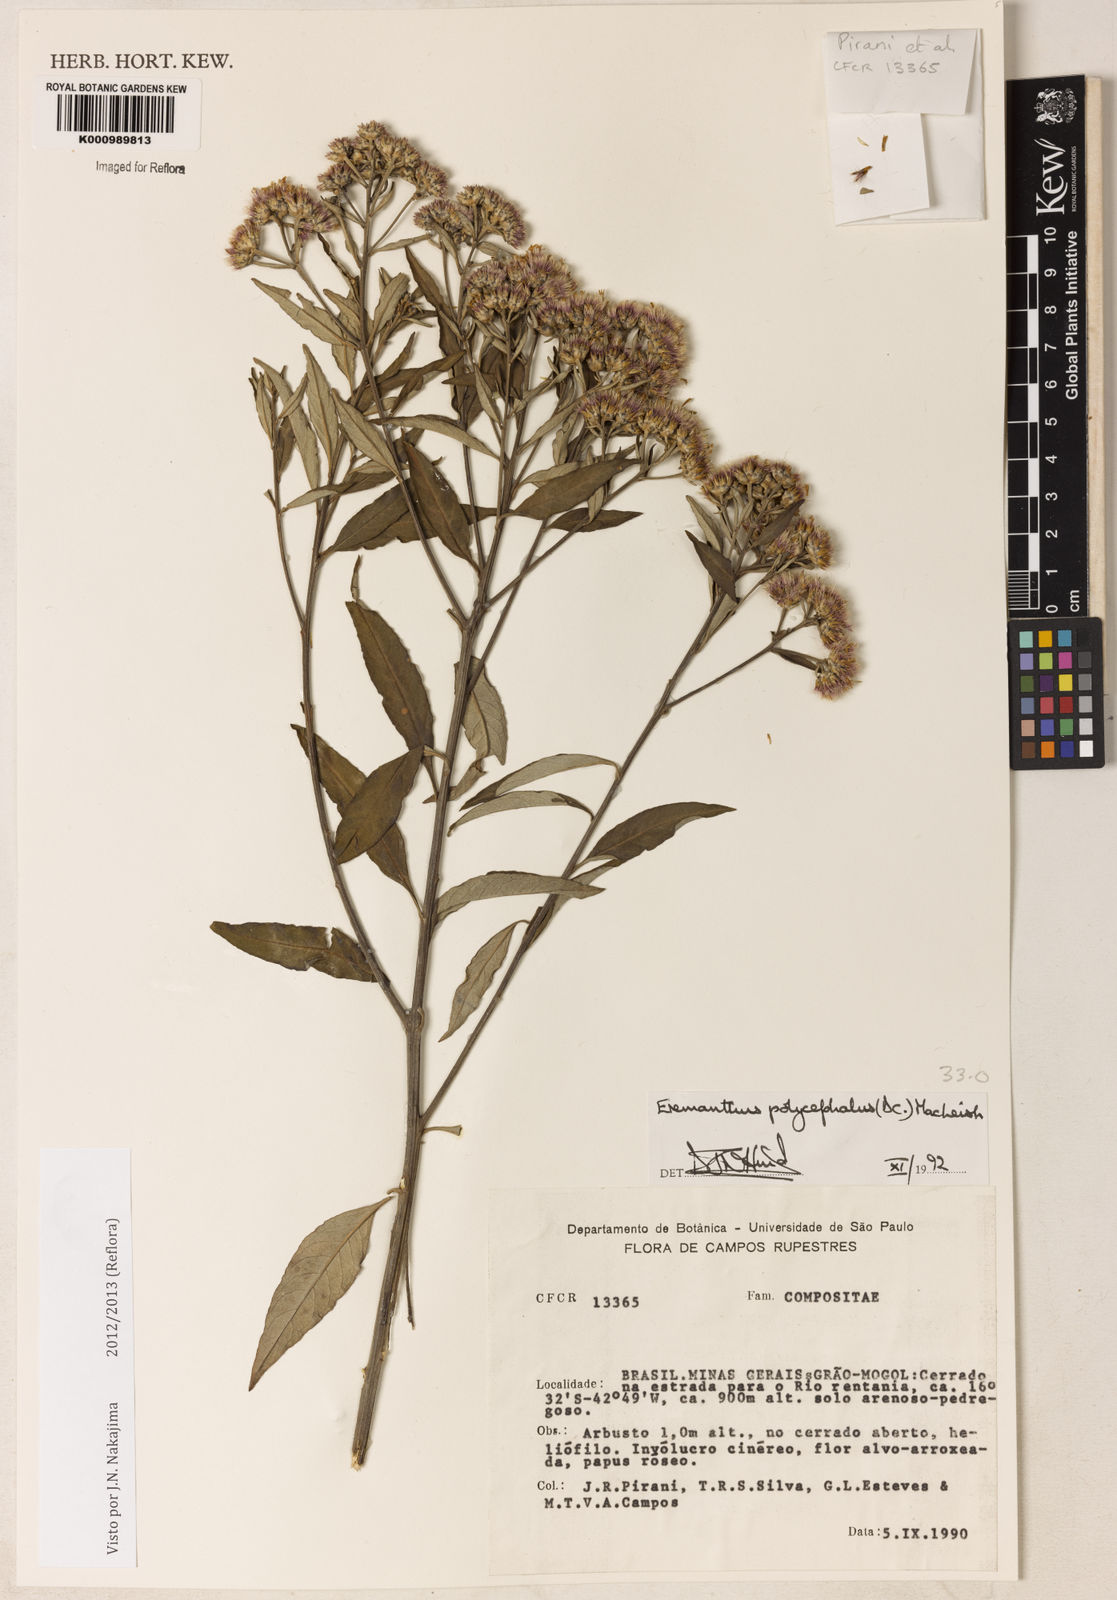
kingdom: Plantae
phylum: Tracheophyta
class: Magnoliopsida
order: Asterales
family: Asteraceae
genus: Eremanthus
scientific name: Eremanthus polycephalus
